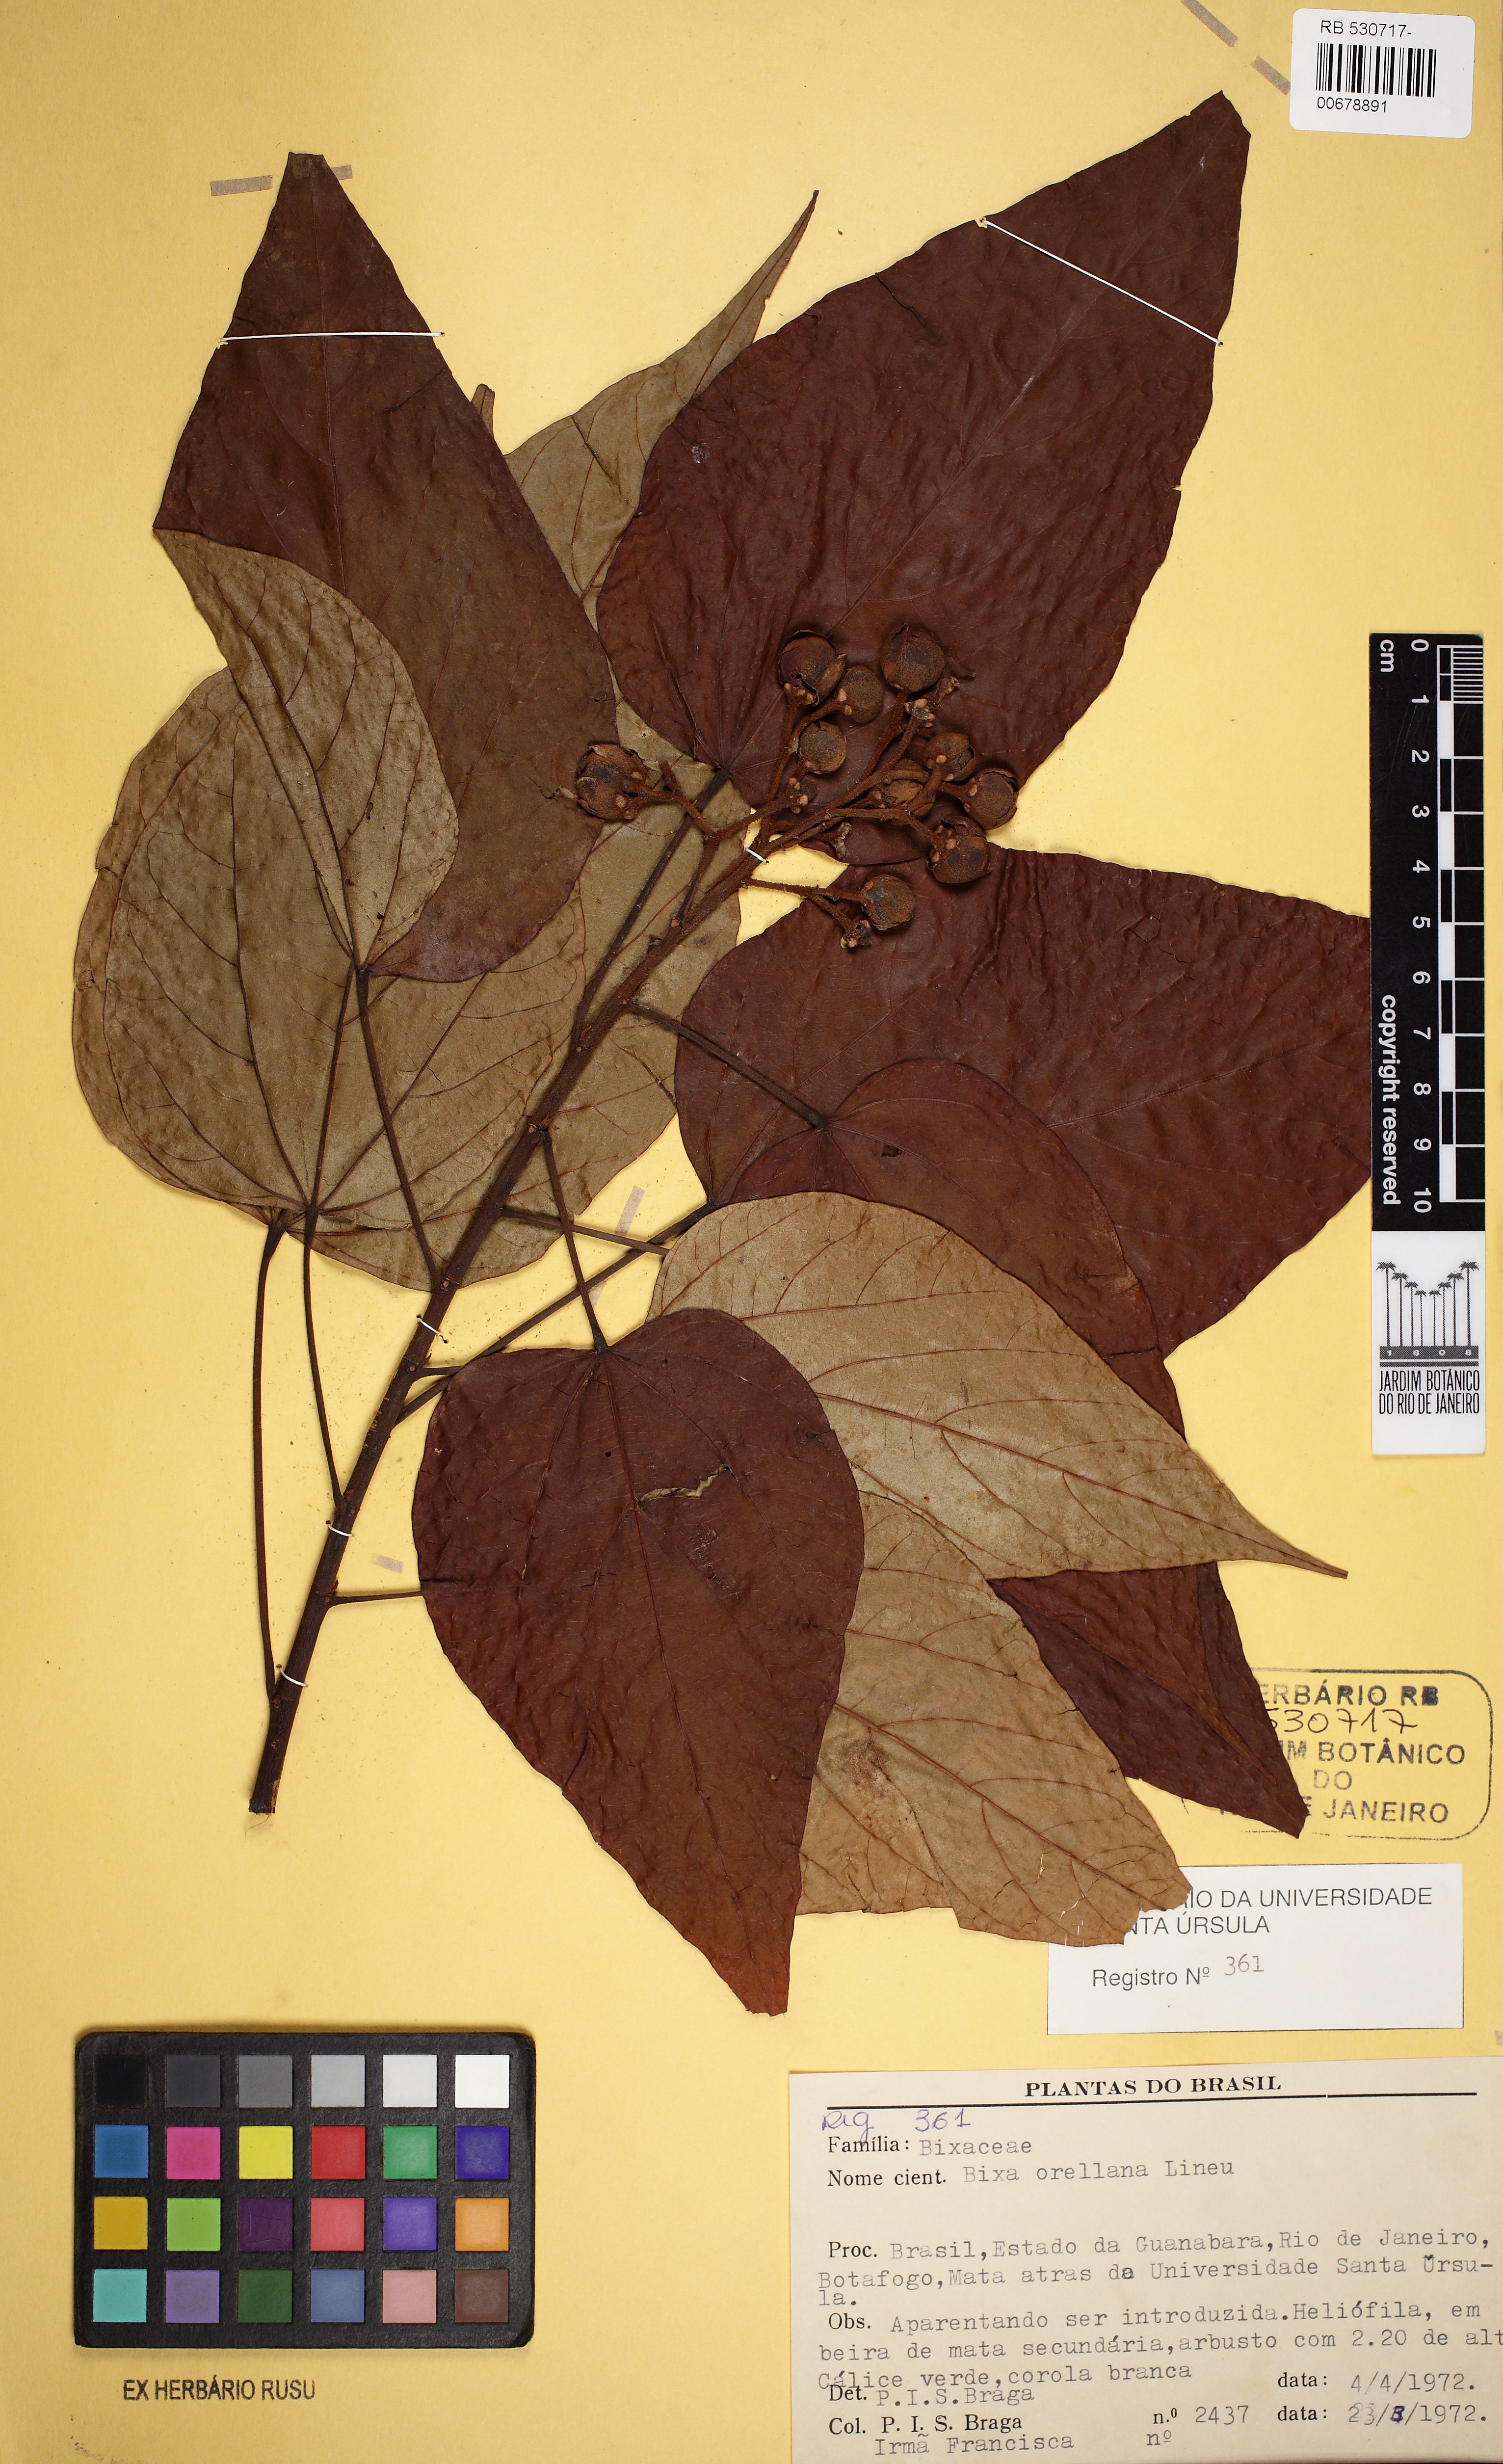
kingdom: Plantae
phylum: Tracheophyta
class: Magnoliopsida
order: Malvales
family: Bixaceae
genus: Bixa
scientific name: Bixa orellana
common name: Lipsticktree
